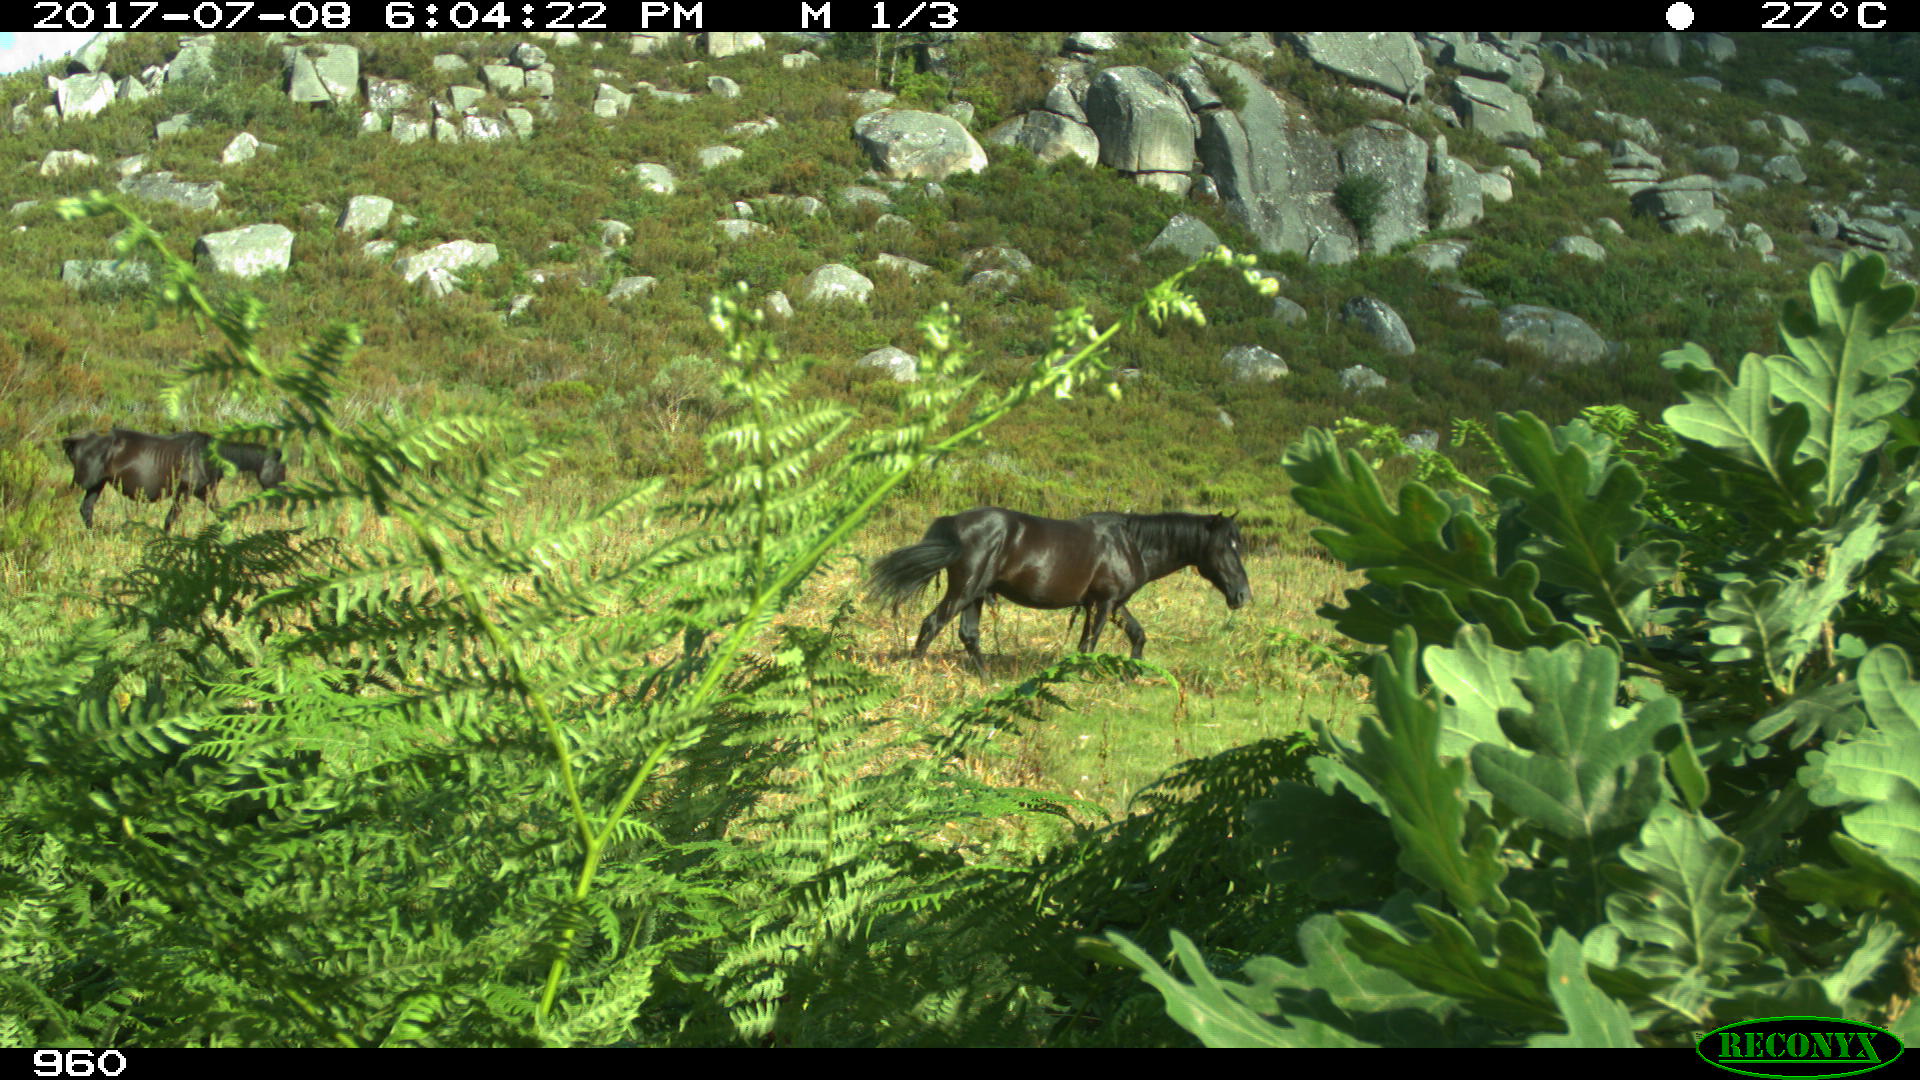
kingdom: Animalia
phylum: Chordata
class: Mammalia
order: Perissodactyla
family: Equidae
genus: Equus
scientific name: Equus caballus
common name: Horse
